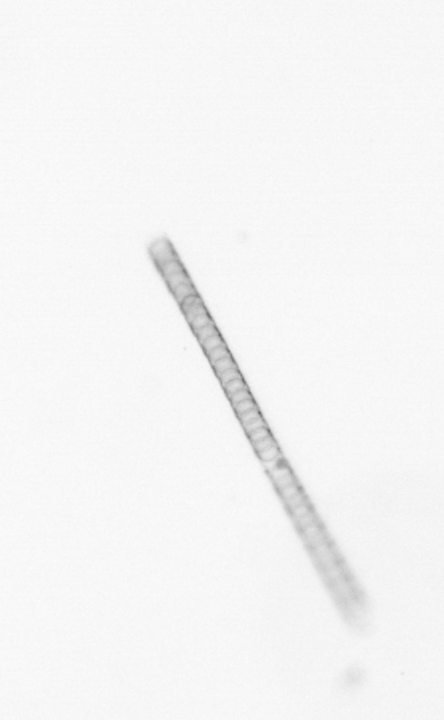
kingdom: Chromista
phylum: Ochrophyta
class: Bacillariophyceae
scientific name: Bacillariophyceae
